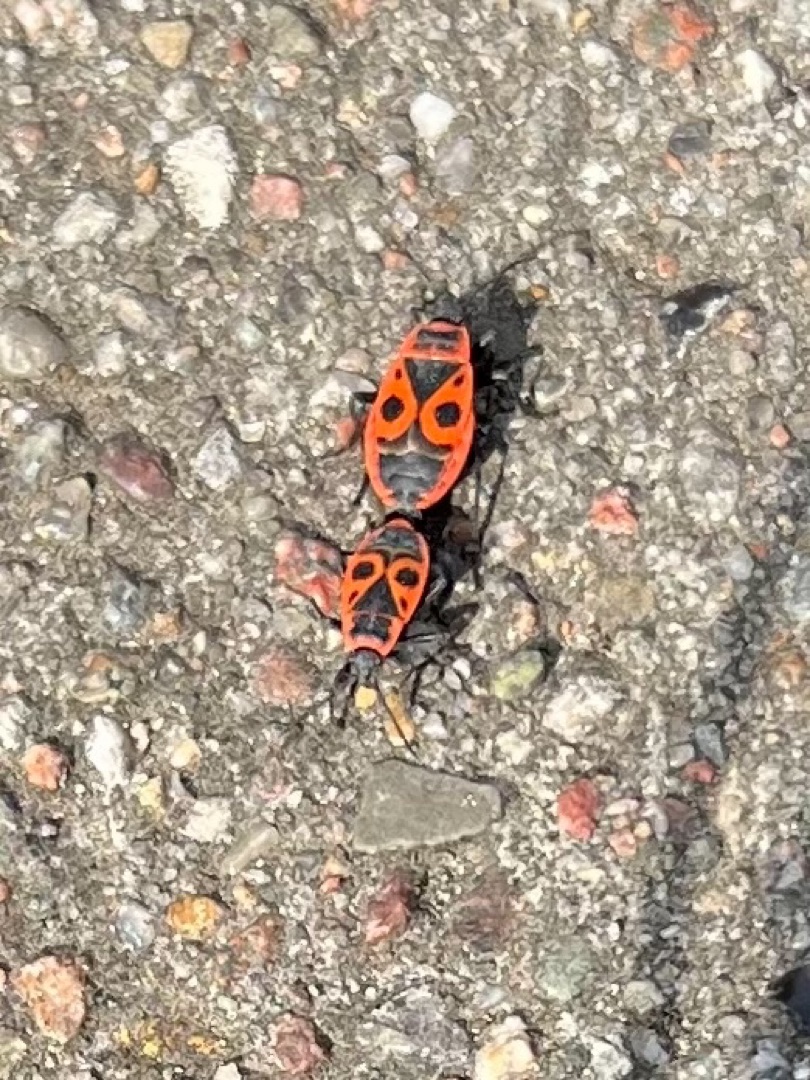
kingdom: Animalia
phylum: Arthropoda
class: Insecta
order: Hemiptera
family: Pyrrhocoridae
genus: Pyrrhocoris
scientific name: Pyrrhocoris apterus
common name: Ildtæge
